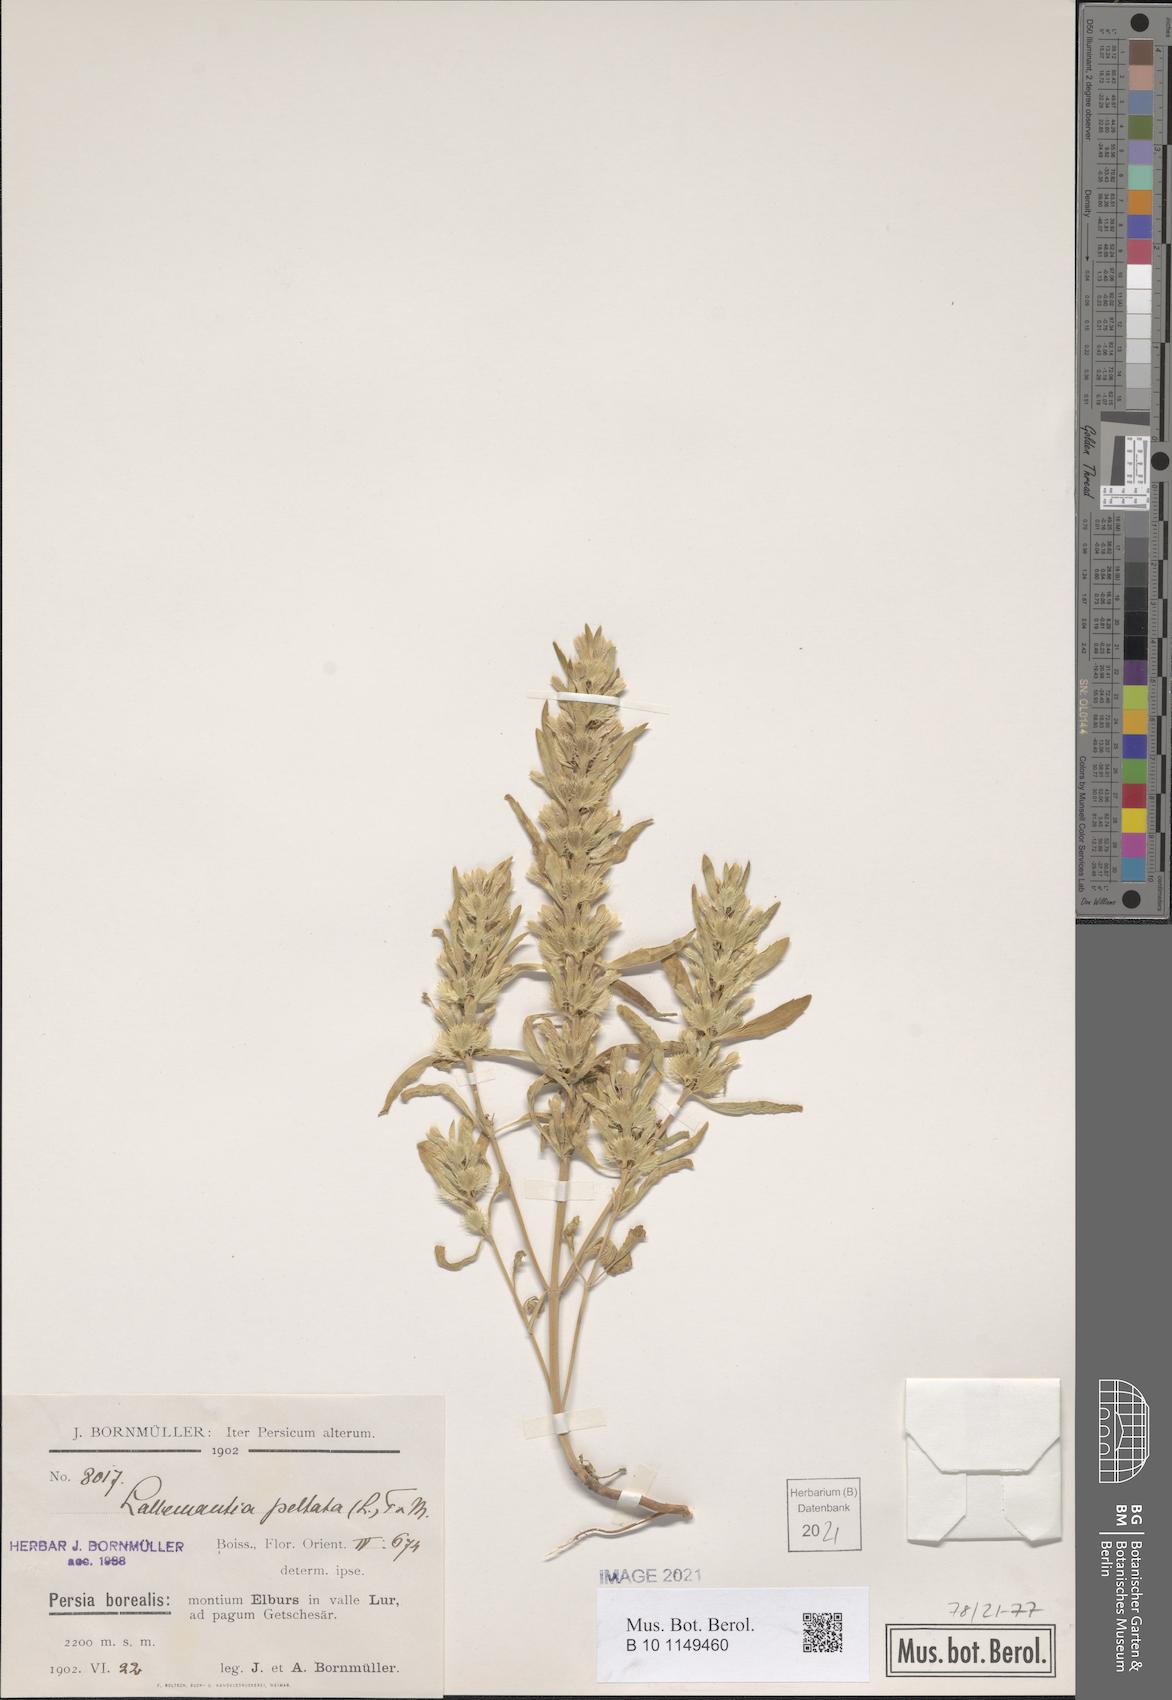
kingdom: Plantae
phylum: Tracheophyta
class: Magnoliopsida
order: Lamiales
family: Lamiaceae
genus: Lallemantia
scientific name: Lallemantia peltata
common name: Lion's heart
